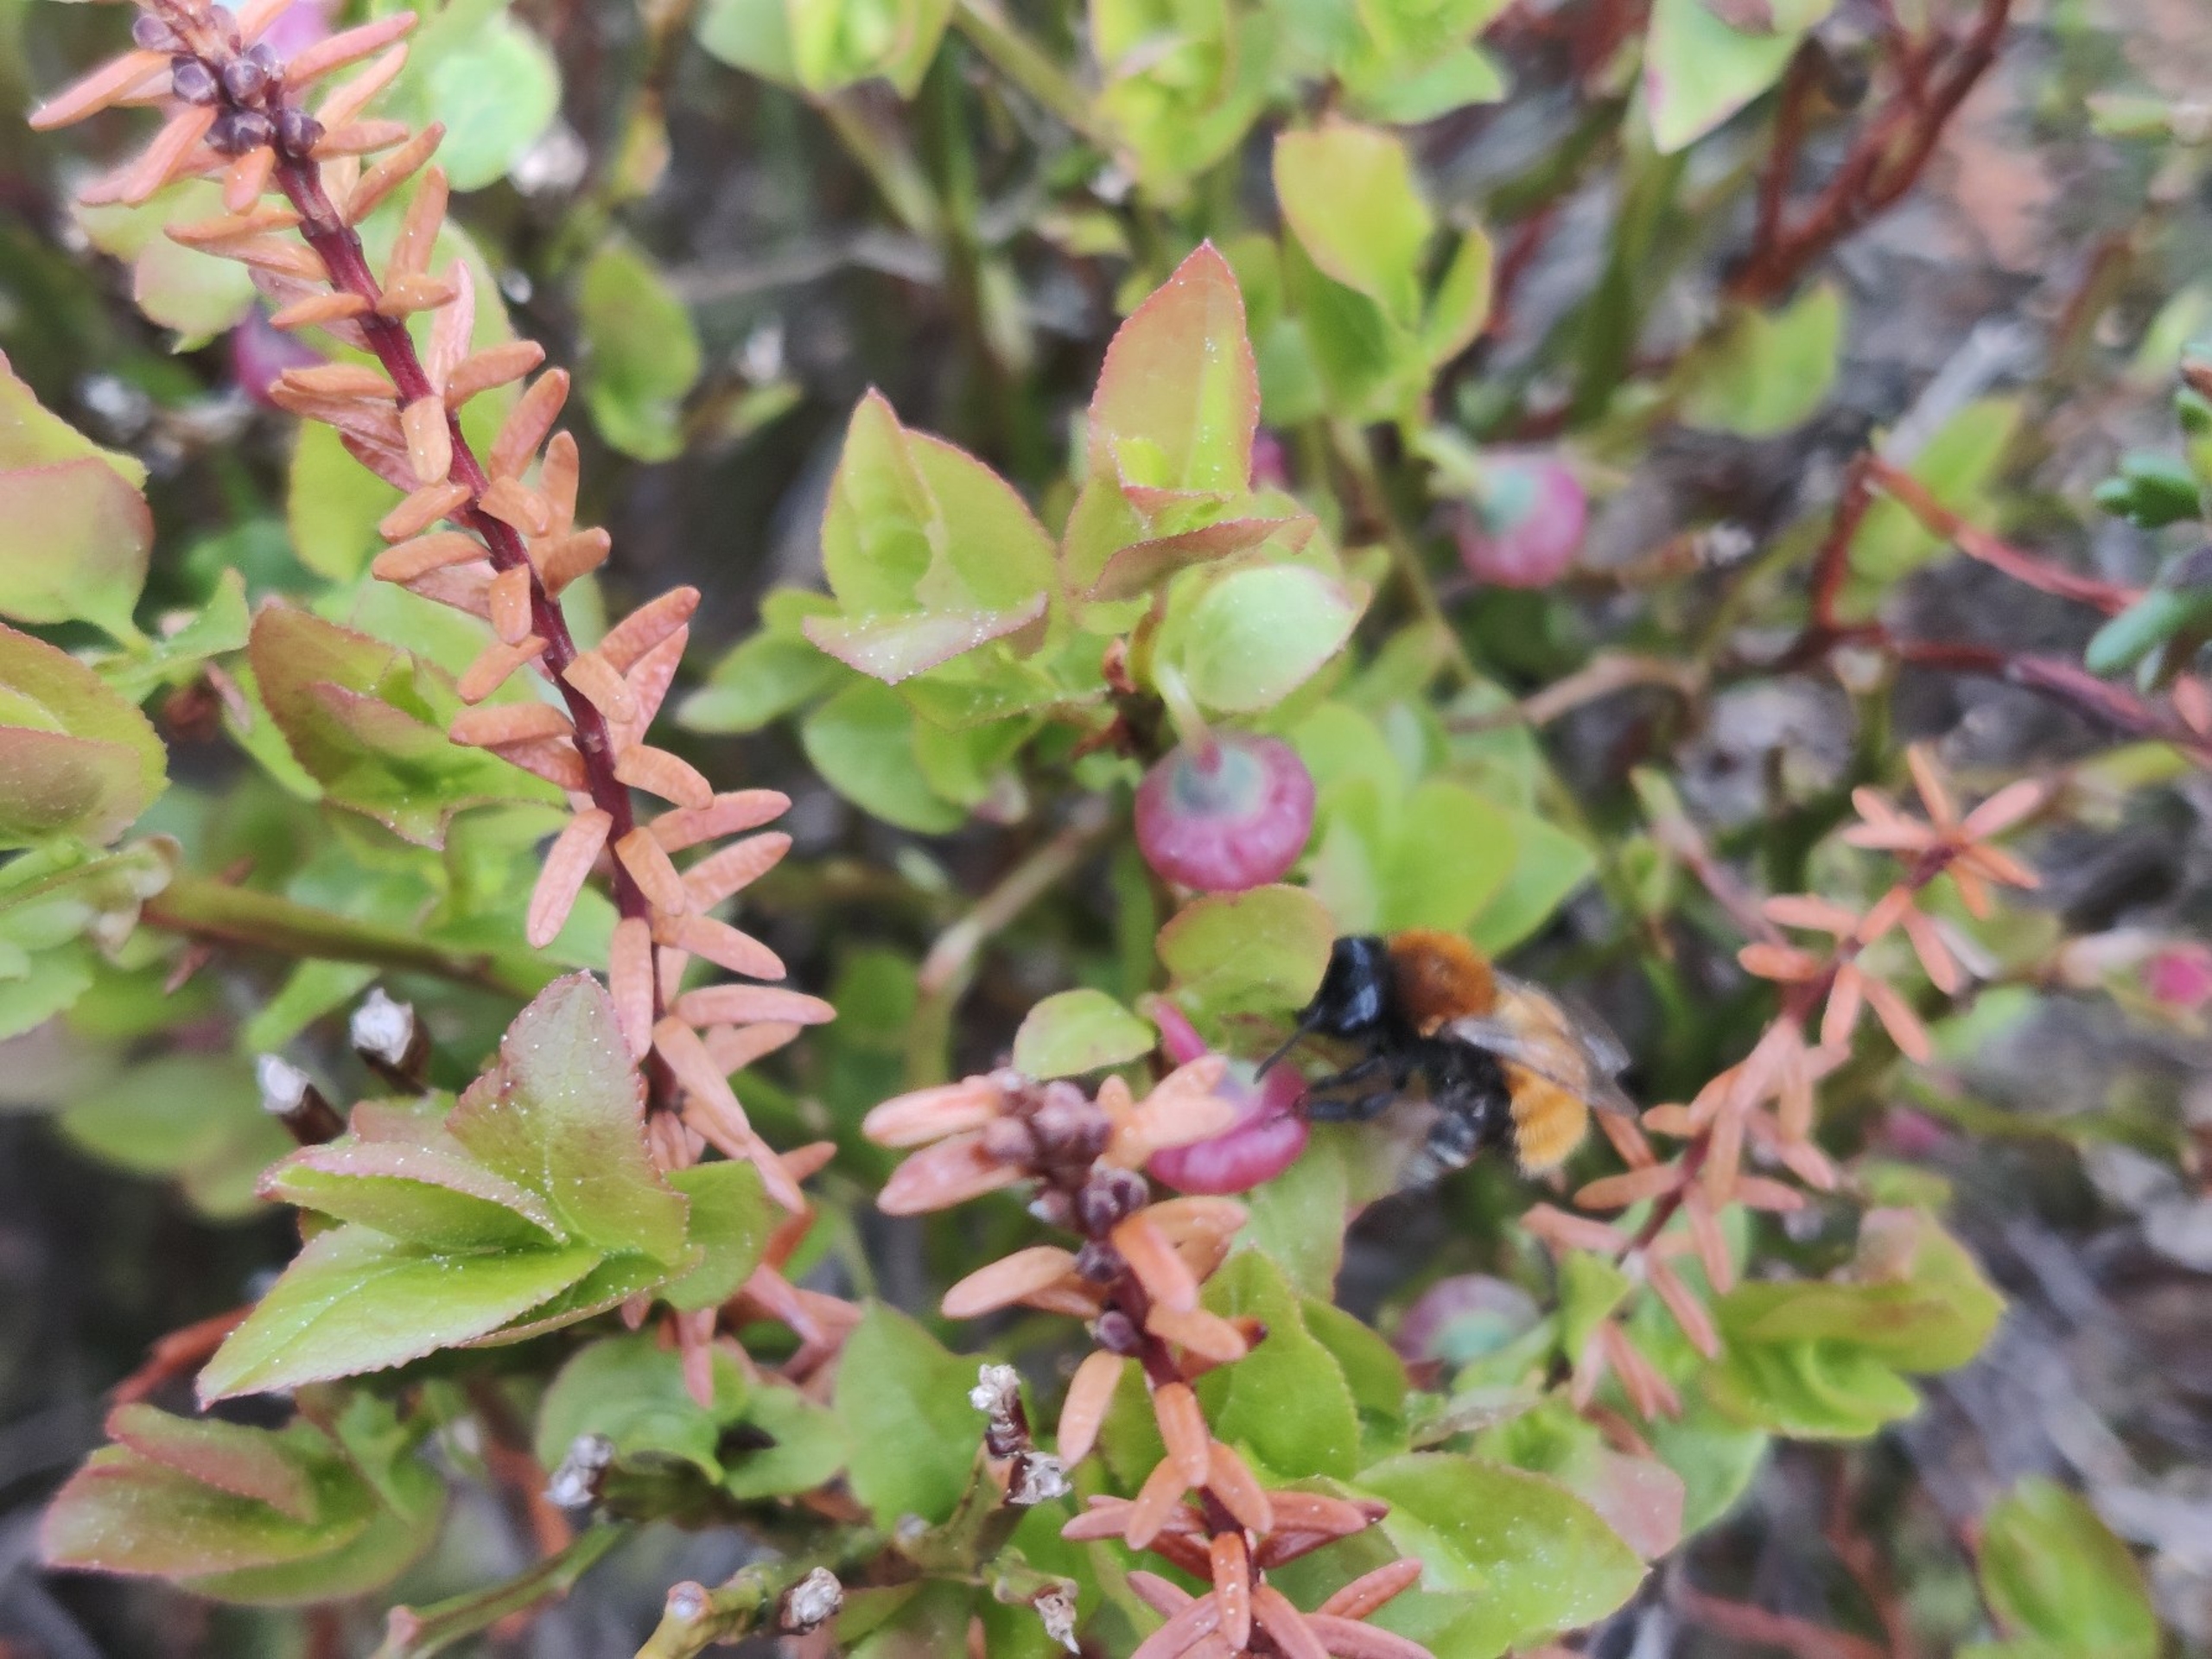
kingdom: Animalia
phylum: Arthropoda
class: Insecta
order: Hymenoptera
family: Andrenidae
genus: Andrena
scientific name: Andrena fulva
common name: Rødpelset jordbi
